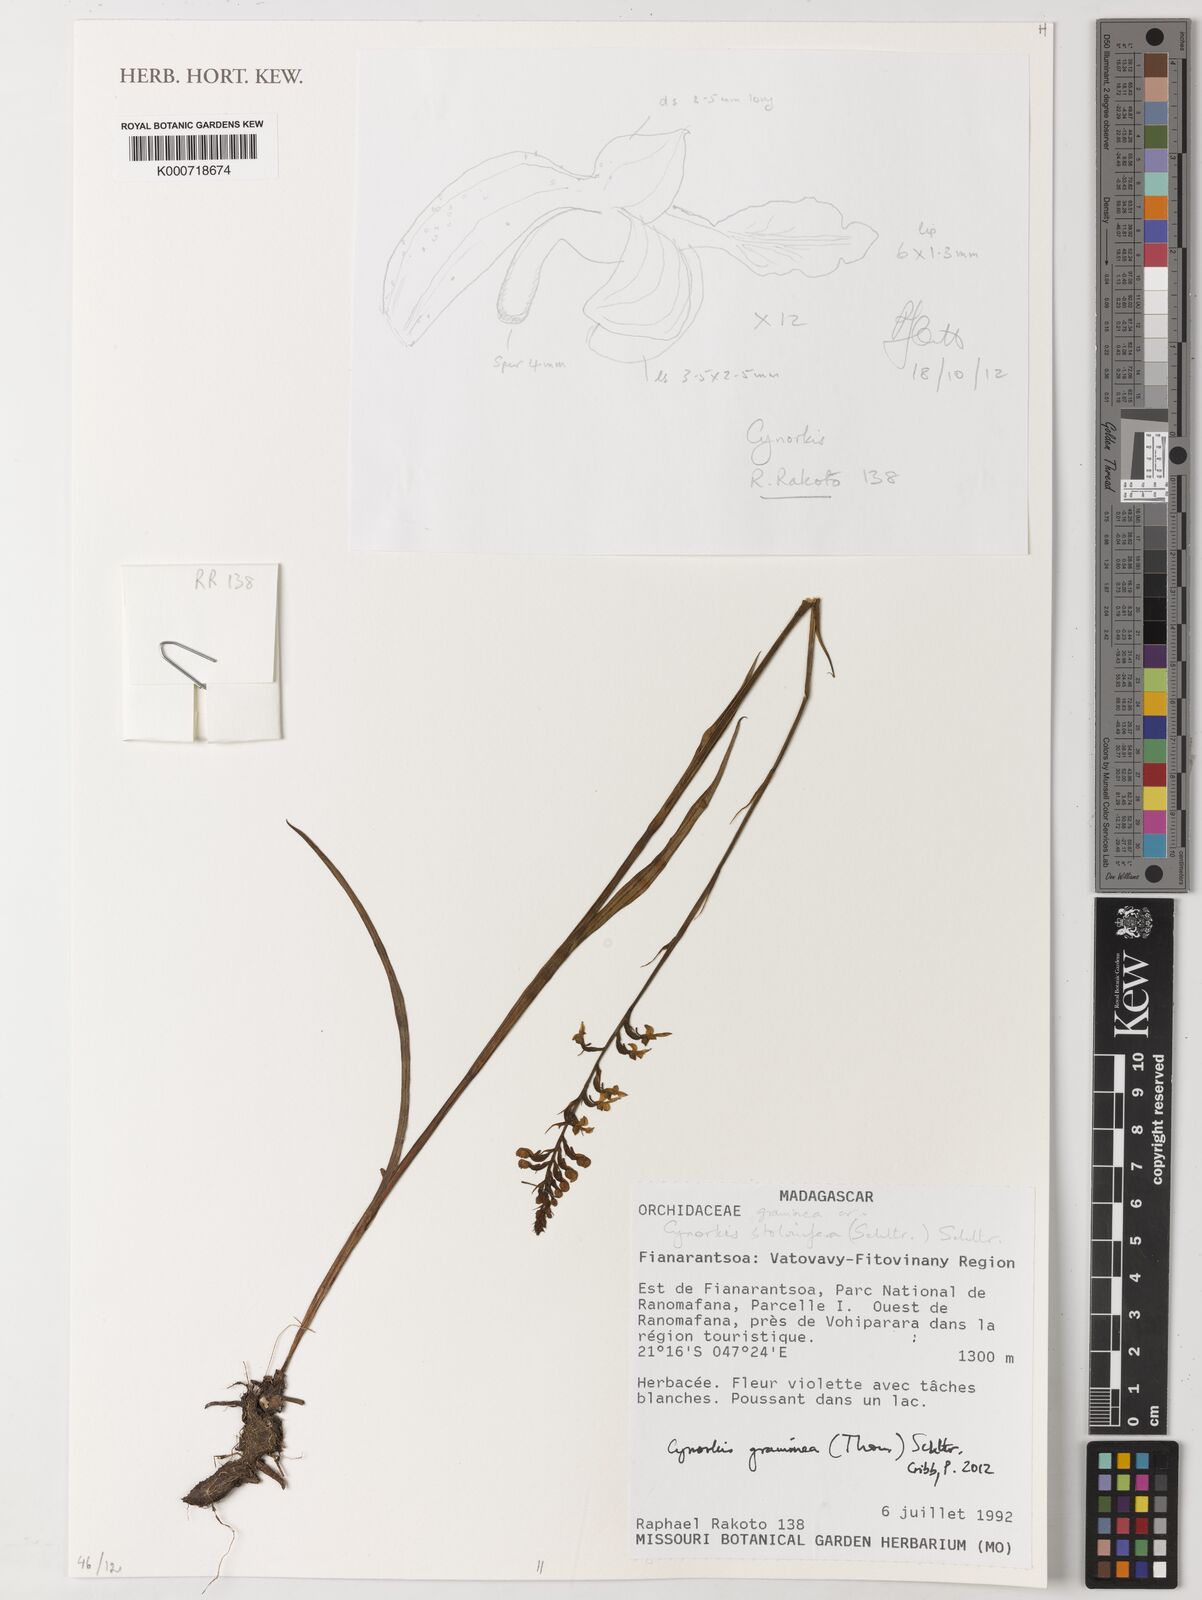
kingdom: Plantae
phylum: Tracheophyta
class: Liliopsida
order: Asparagales
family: Orchidaceae
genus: Cynorkis
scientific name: Cynorkis graminea
